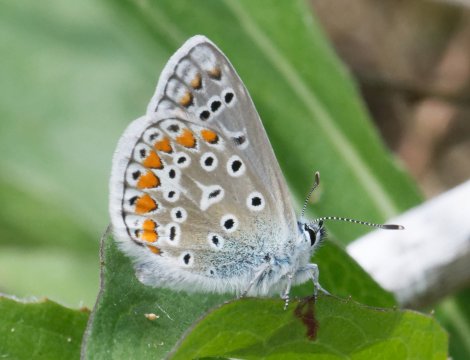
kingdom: Animalia
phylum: Arthropoda
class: Insecta
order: Lepidoptera
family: Lycaenidae
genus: Polyommatus
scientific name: Polyommatus icarus
